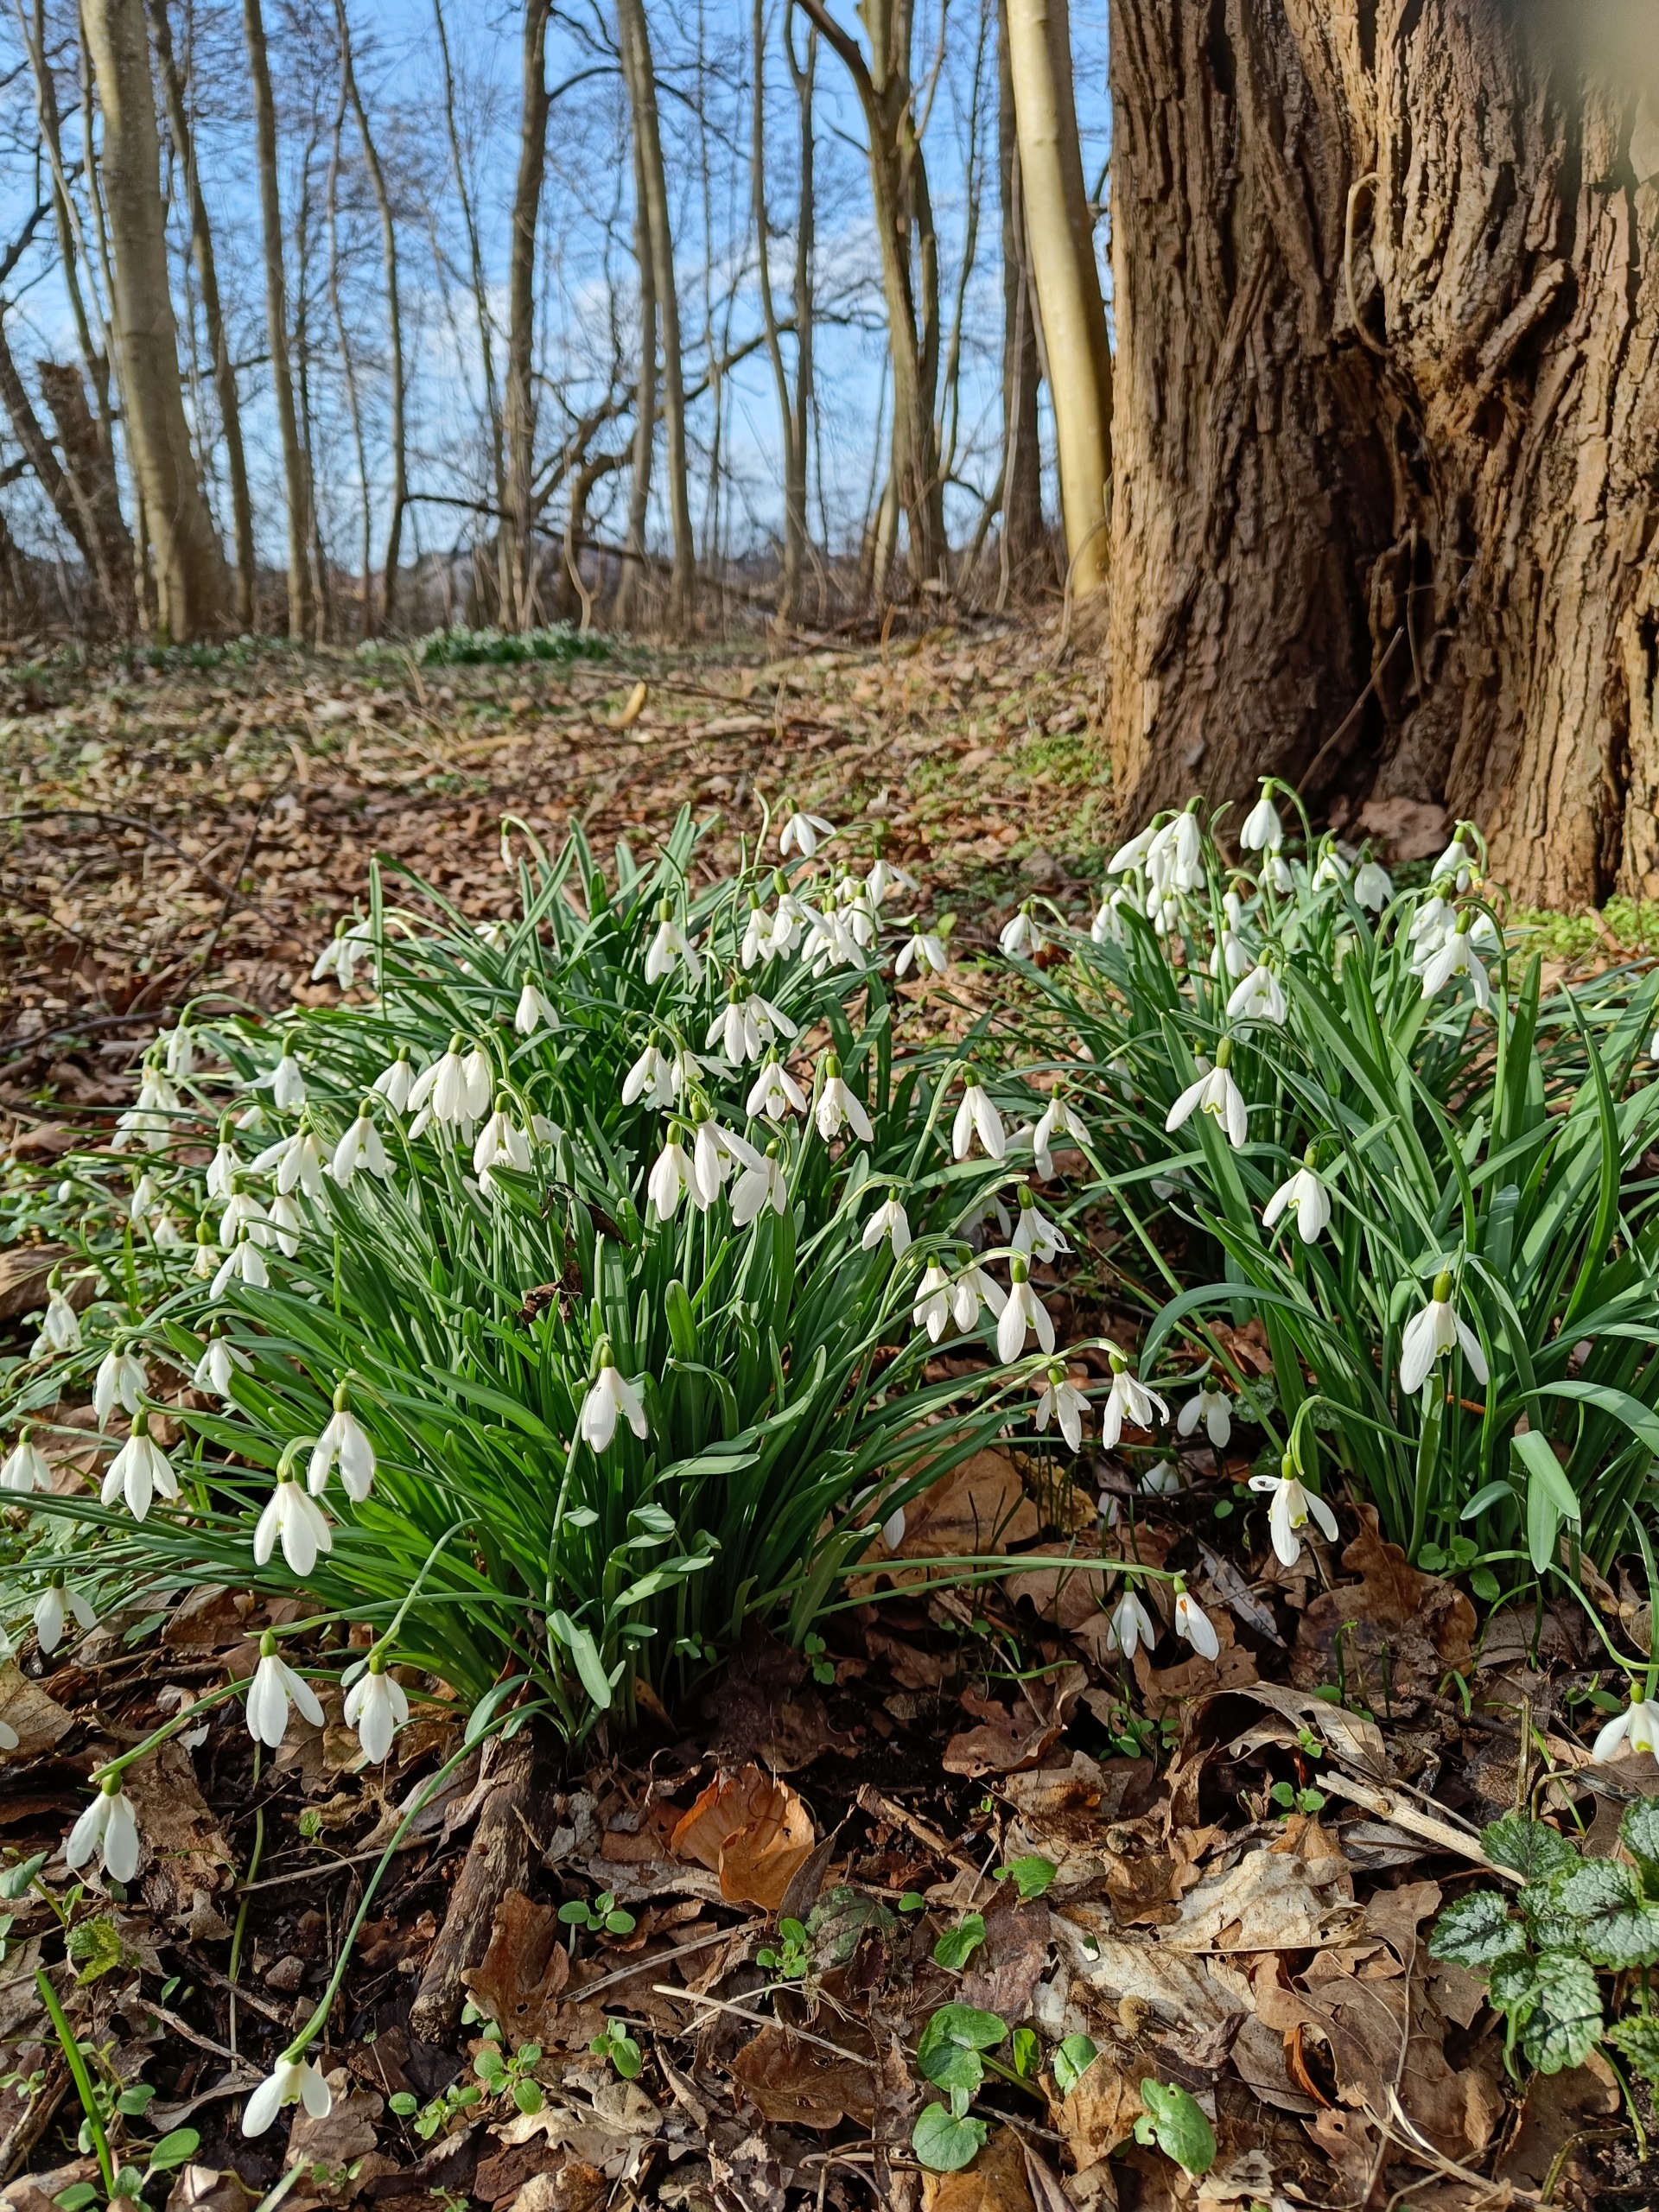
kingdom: Plantae
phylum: Tracheophyta
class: Liliopsida
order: Asparagales
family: Amaryllidaceae
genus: Galanthus
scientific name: Galanthus nivalis
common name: Vintergæk
